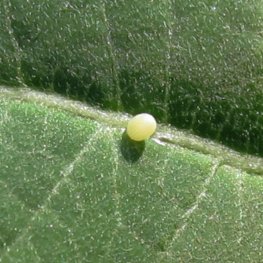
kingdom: Animalia
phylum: Arthropoda
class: Insecta
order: Lepidoptera
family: Nymphalidae
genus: Danaus
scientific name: Danaus plexippus
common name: Monarch
